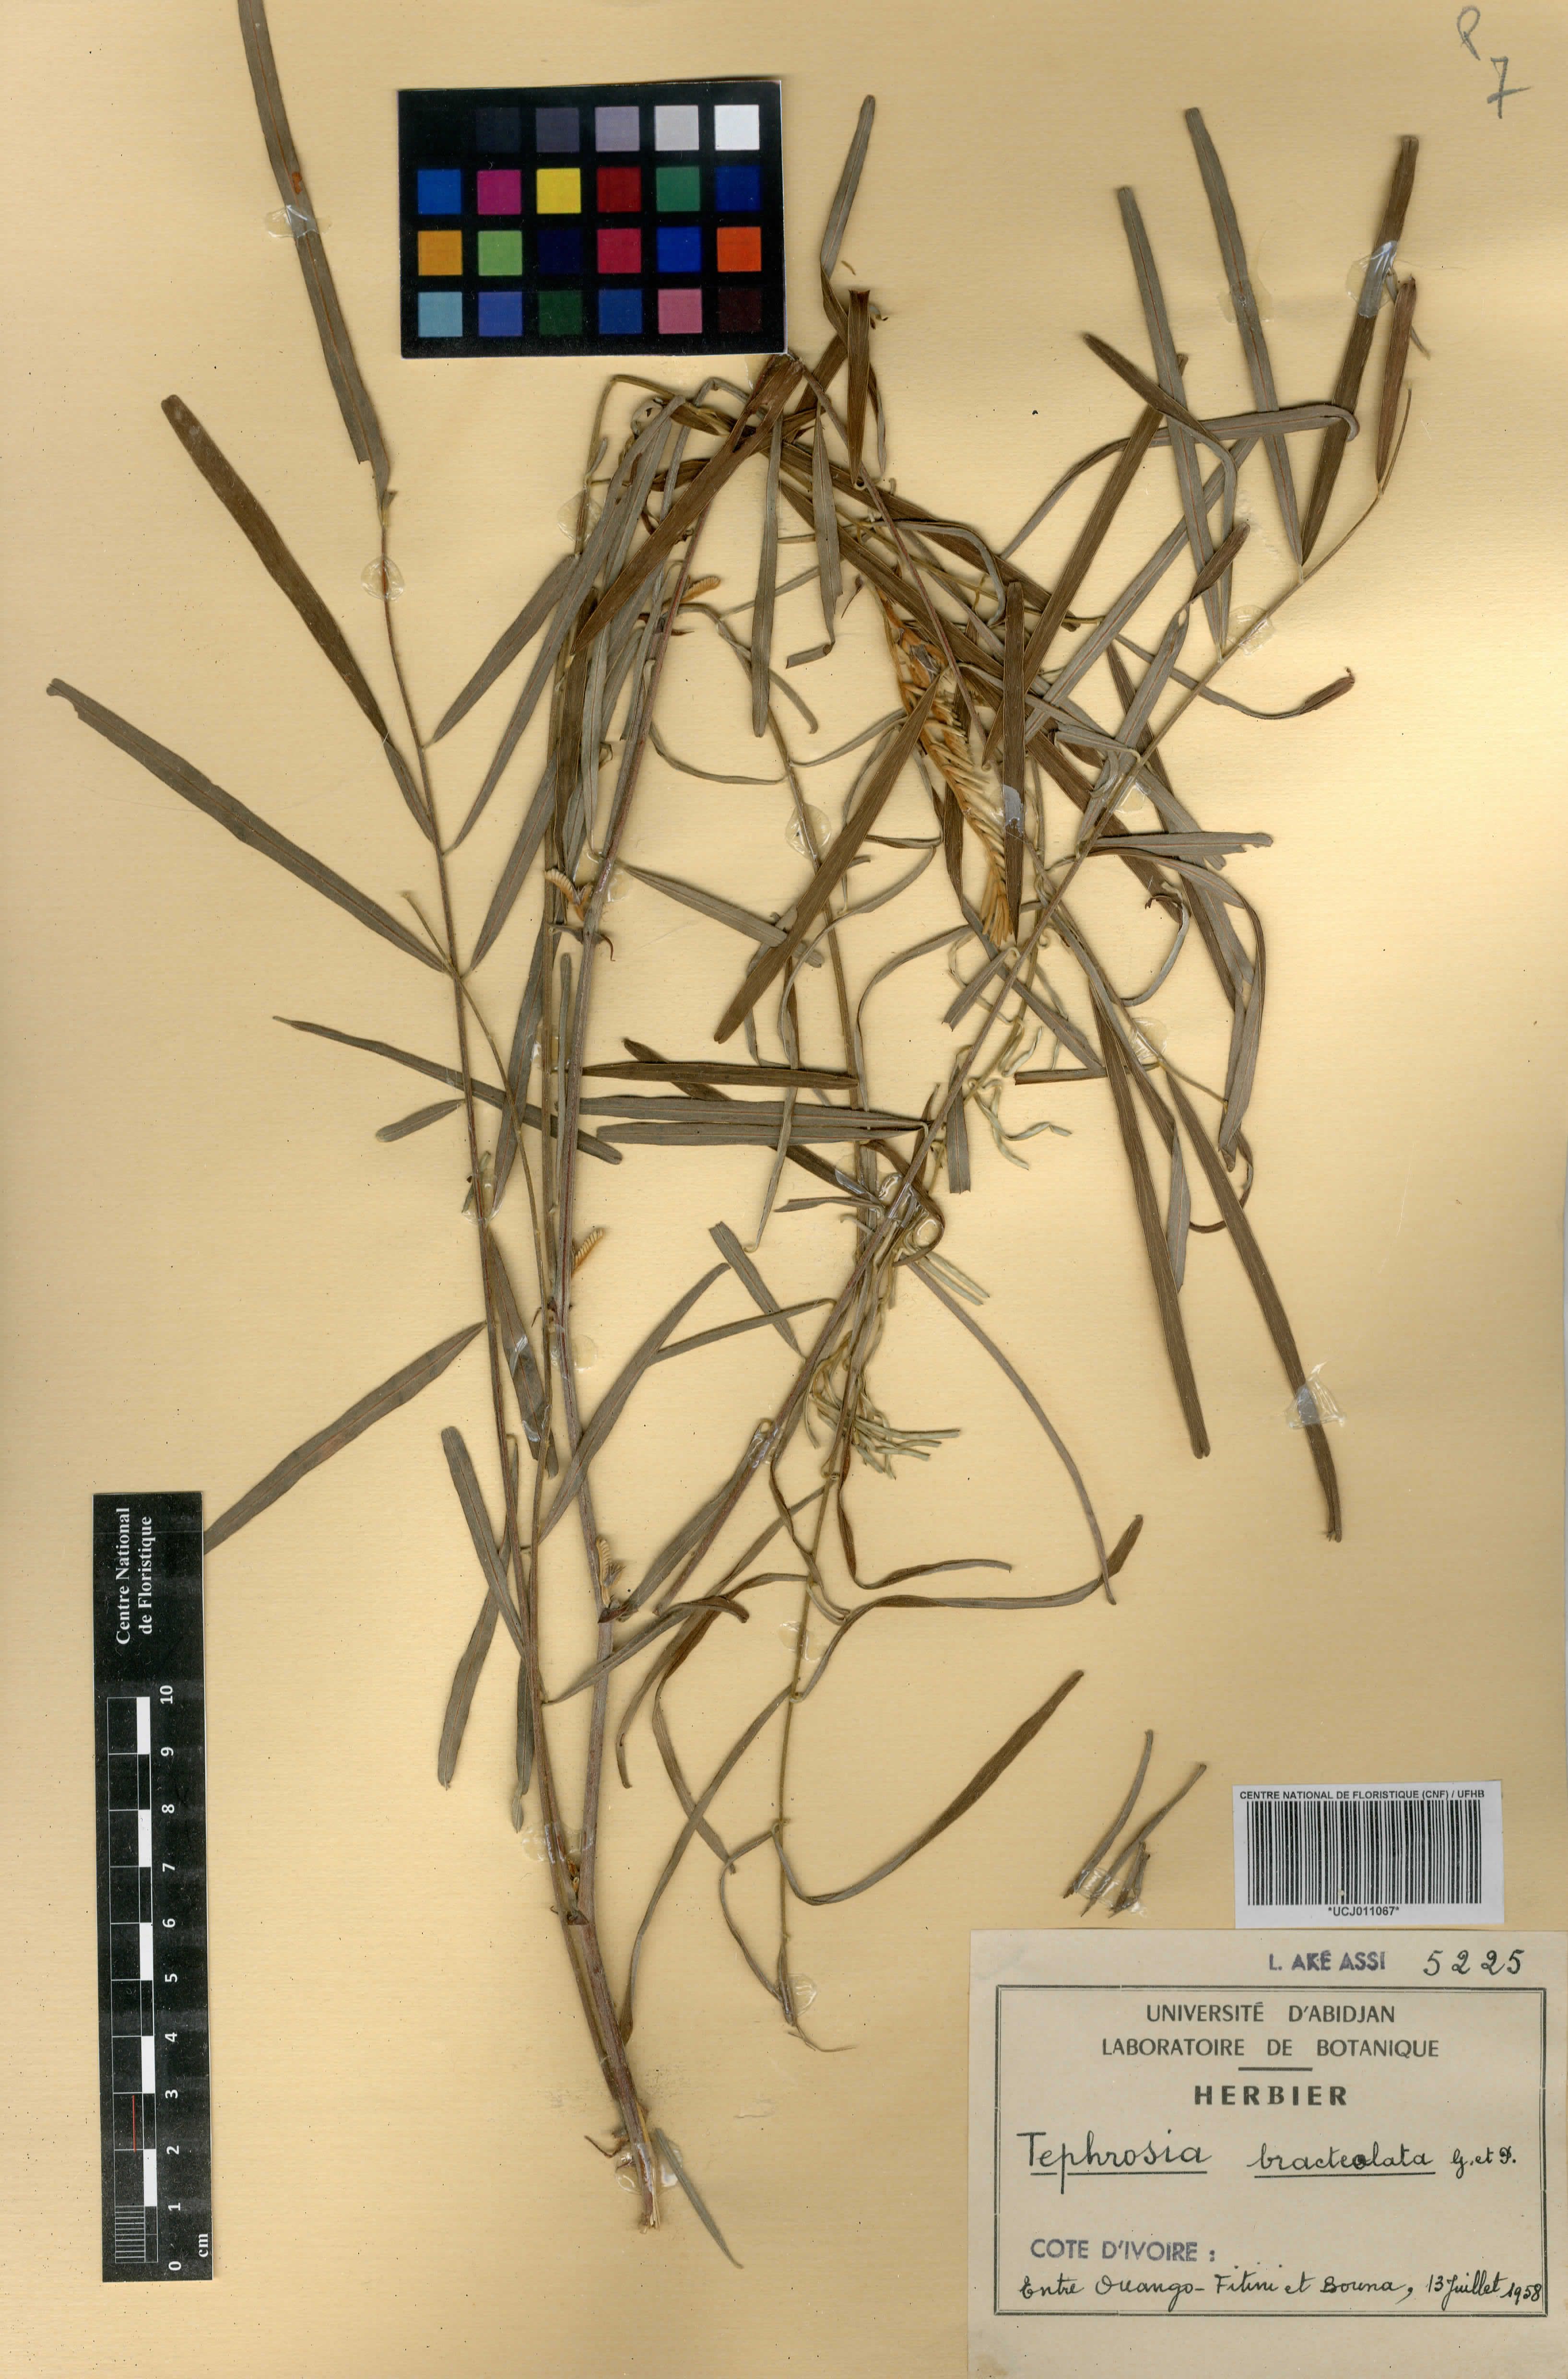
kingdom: Plantae
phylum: Tracheophyta
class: Magnoliopsida
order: Fabales
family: Fabaceae
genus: Tephrosia
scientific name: Tephrosia bracteolata
